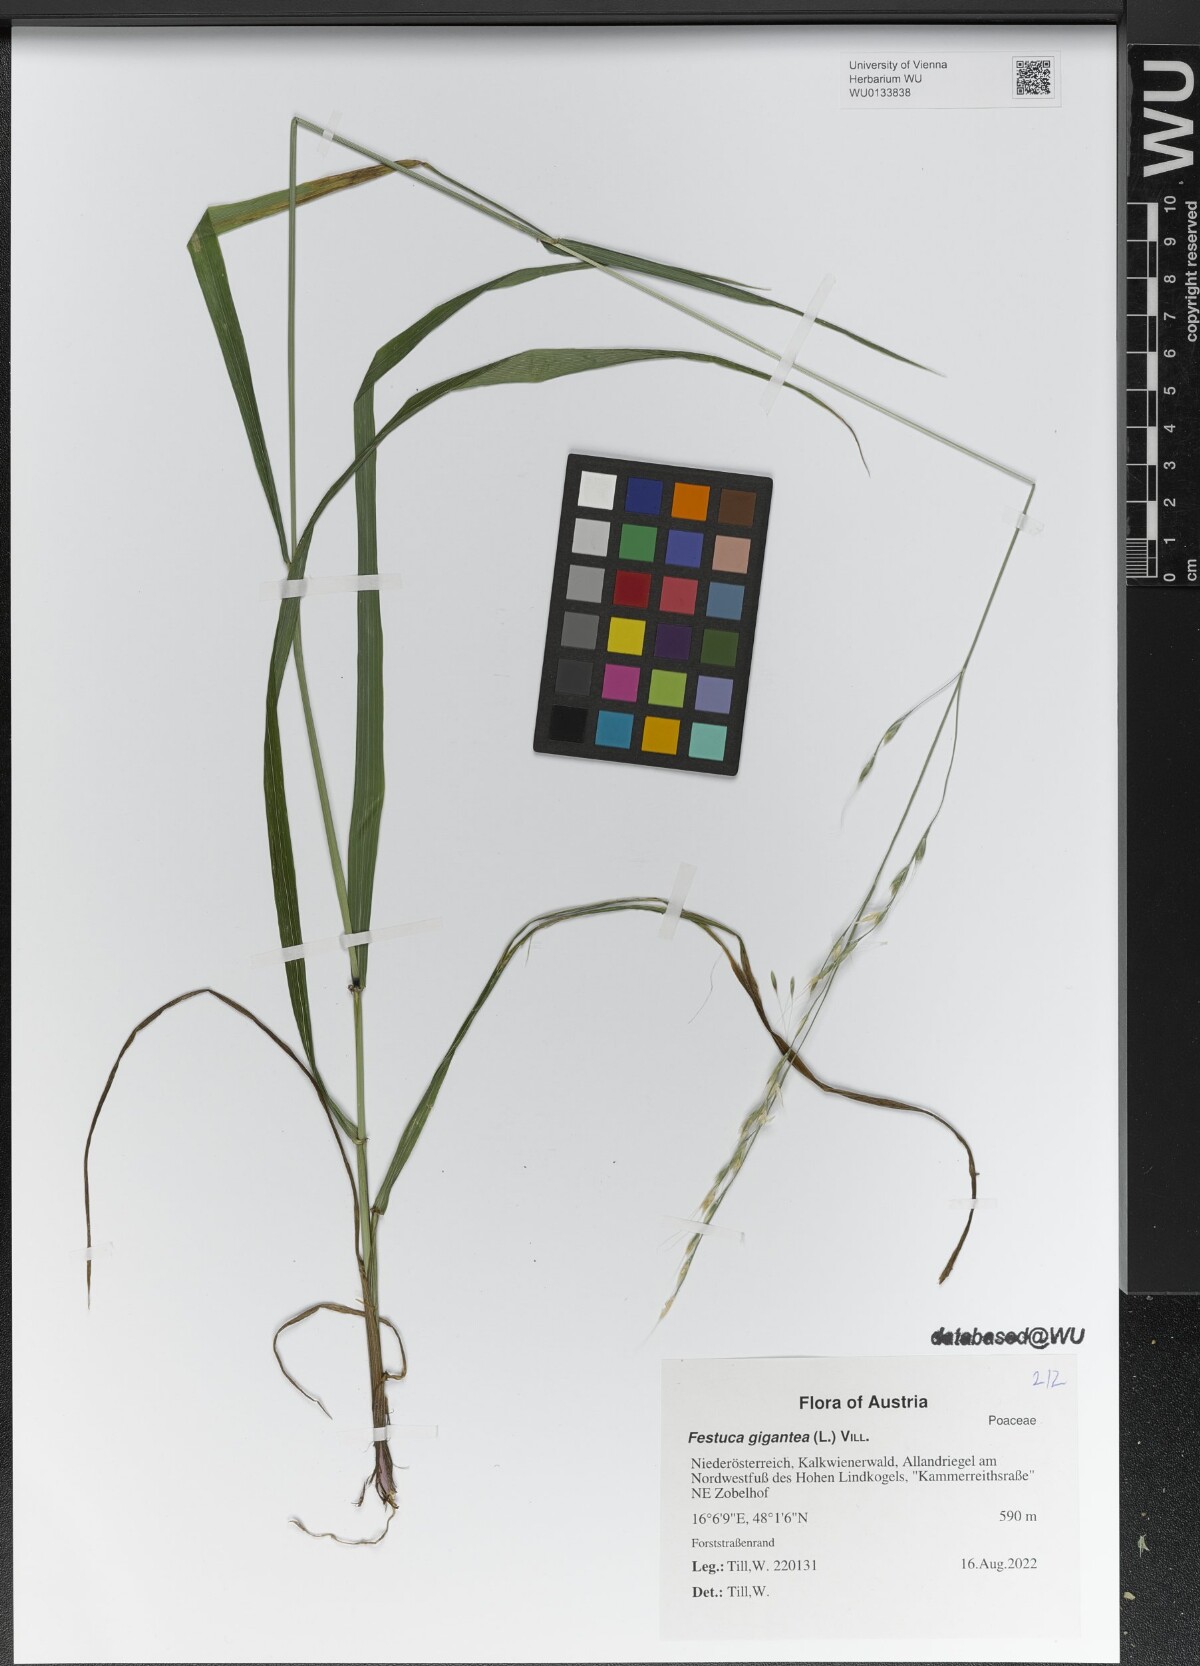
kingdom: Plantae
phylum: Tracheophyta
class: Liliopsida
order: Poales
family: Poaceae
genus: Lolium
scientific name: Lolium giganteum
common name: Giant fescue
